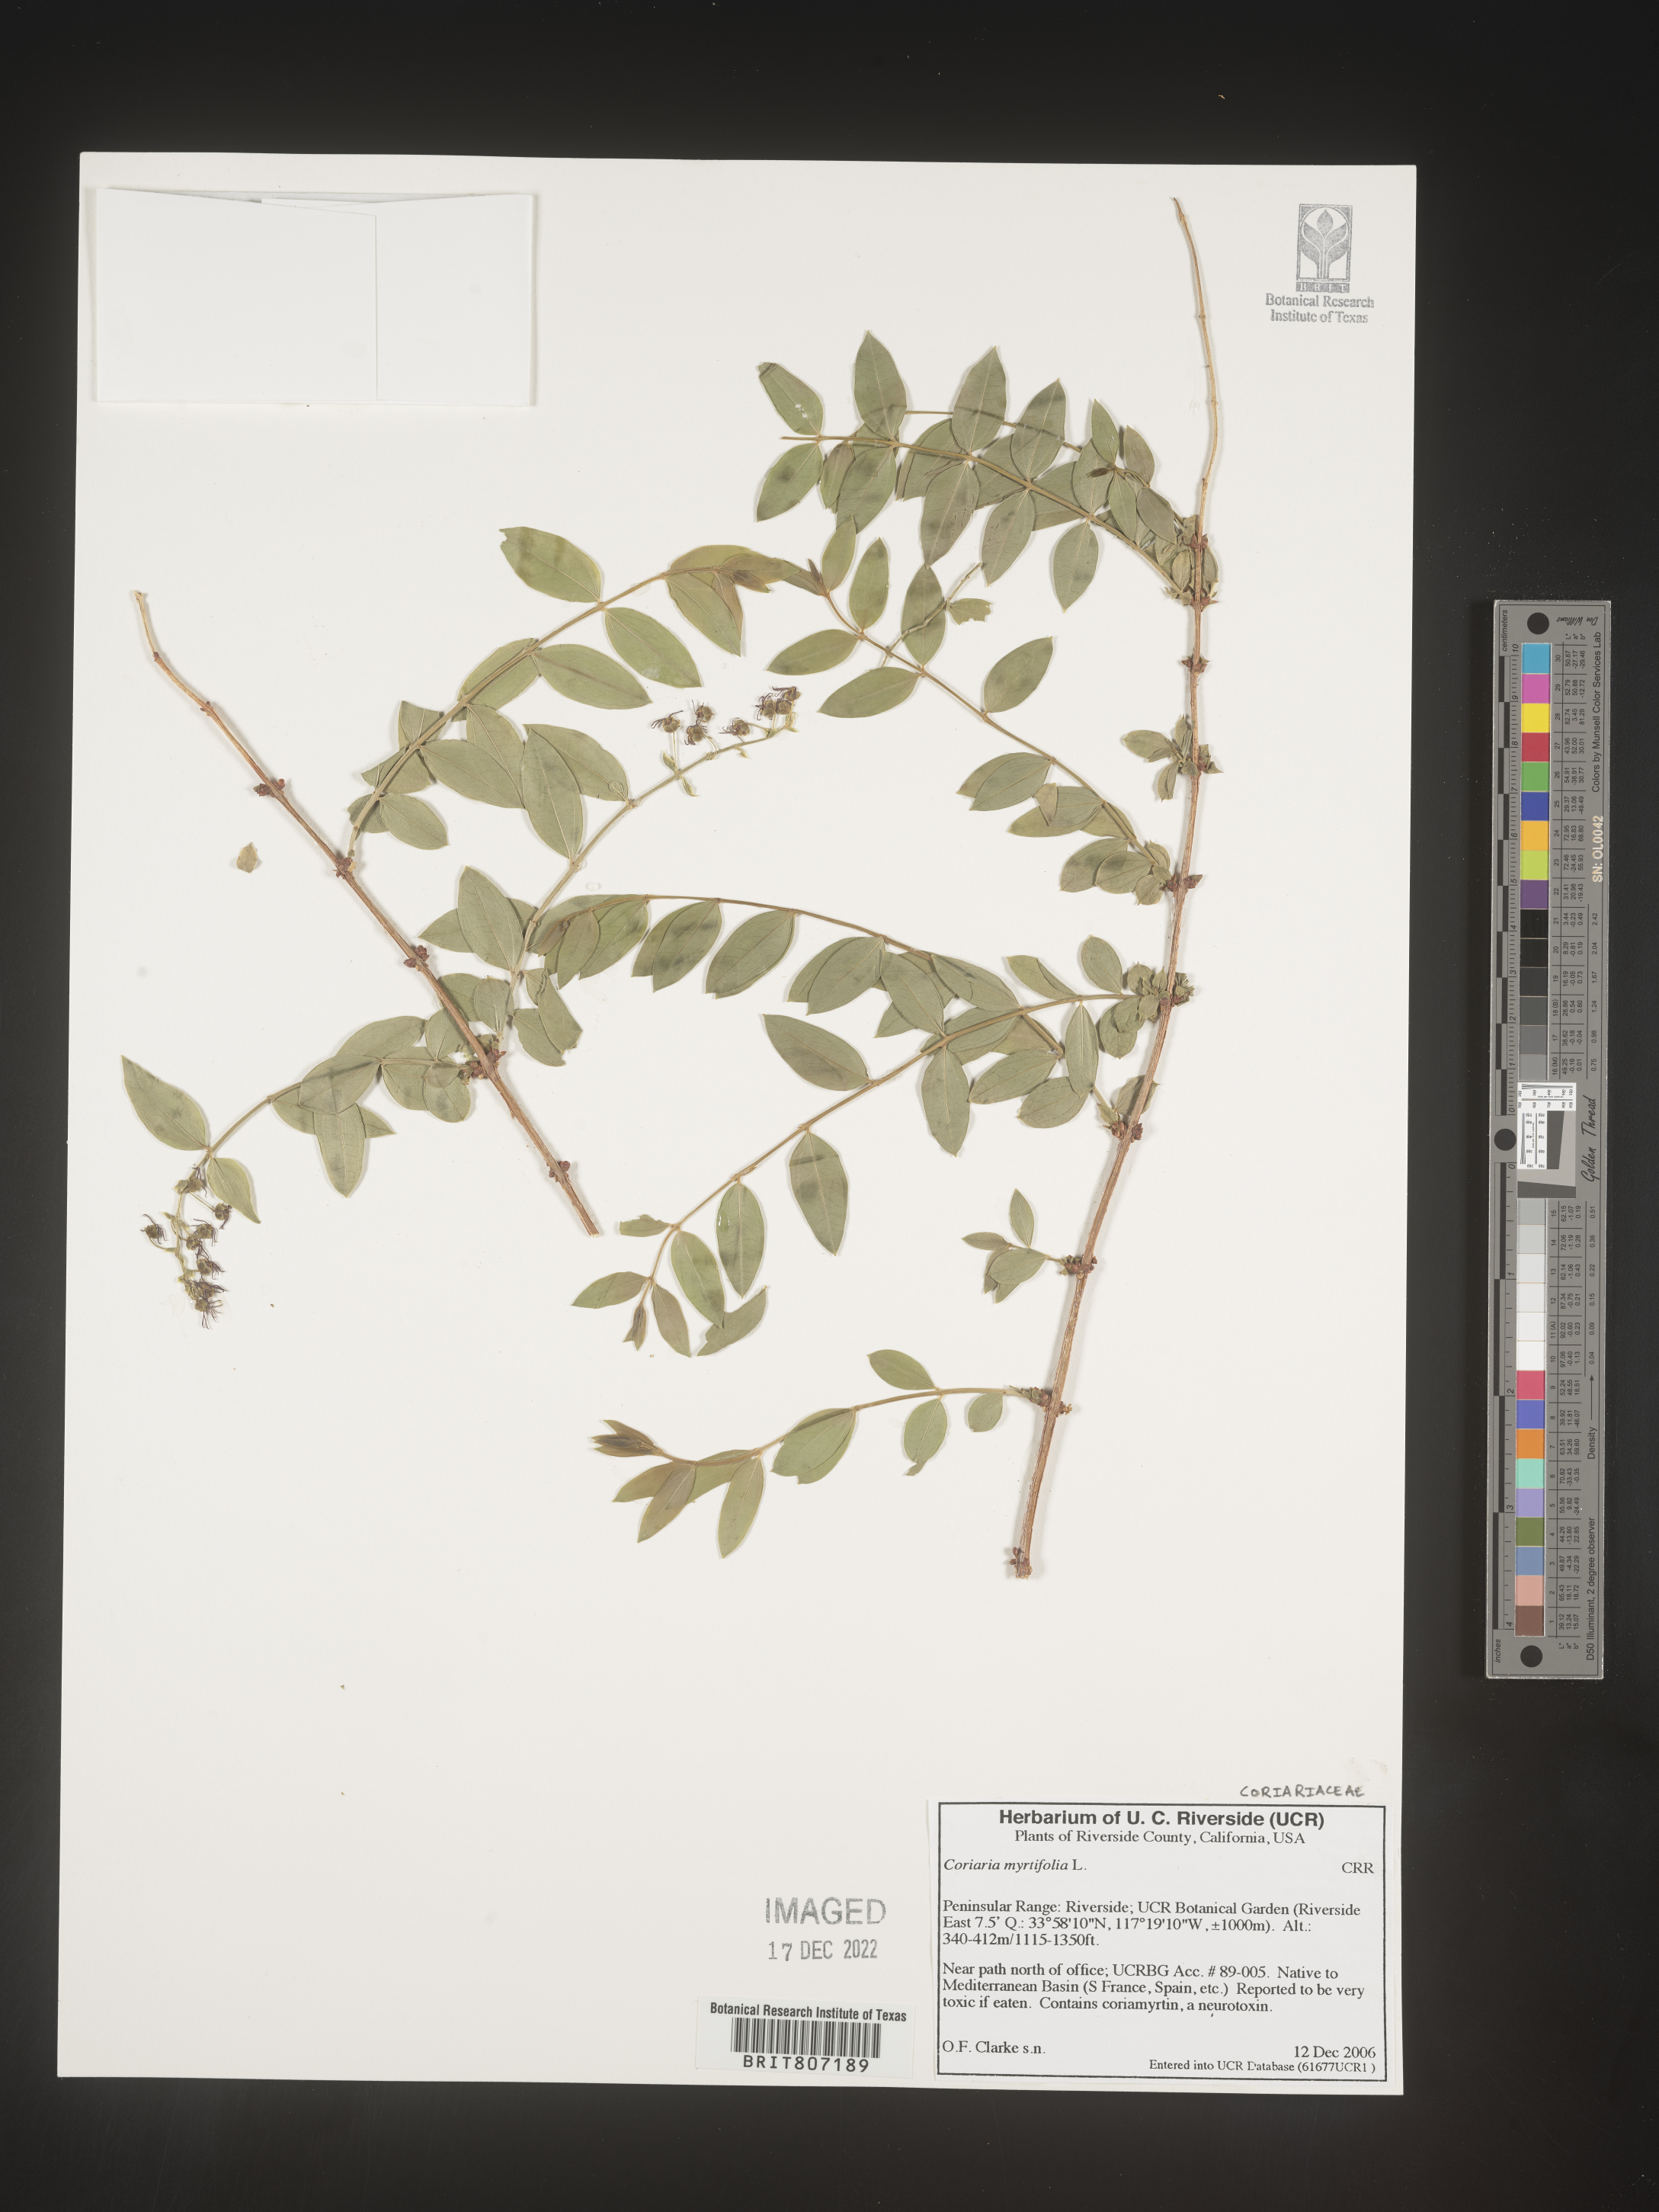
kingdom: Plantae
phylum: Tracheophyta
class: Magnoliopsida
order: Cucurbitales
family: Coriariaceae
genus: Coriaria
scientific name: Coriaria
